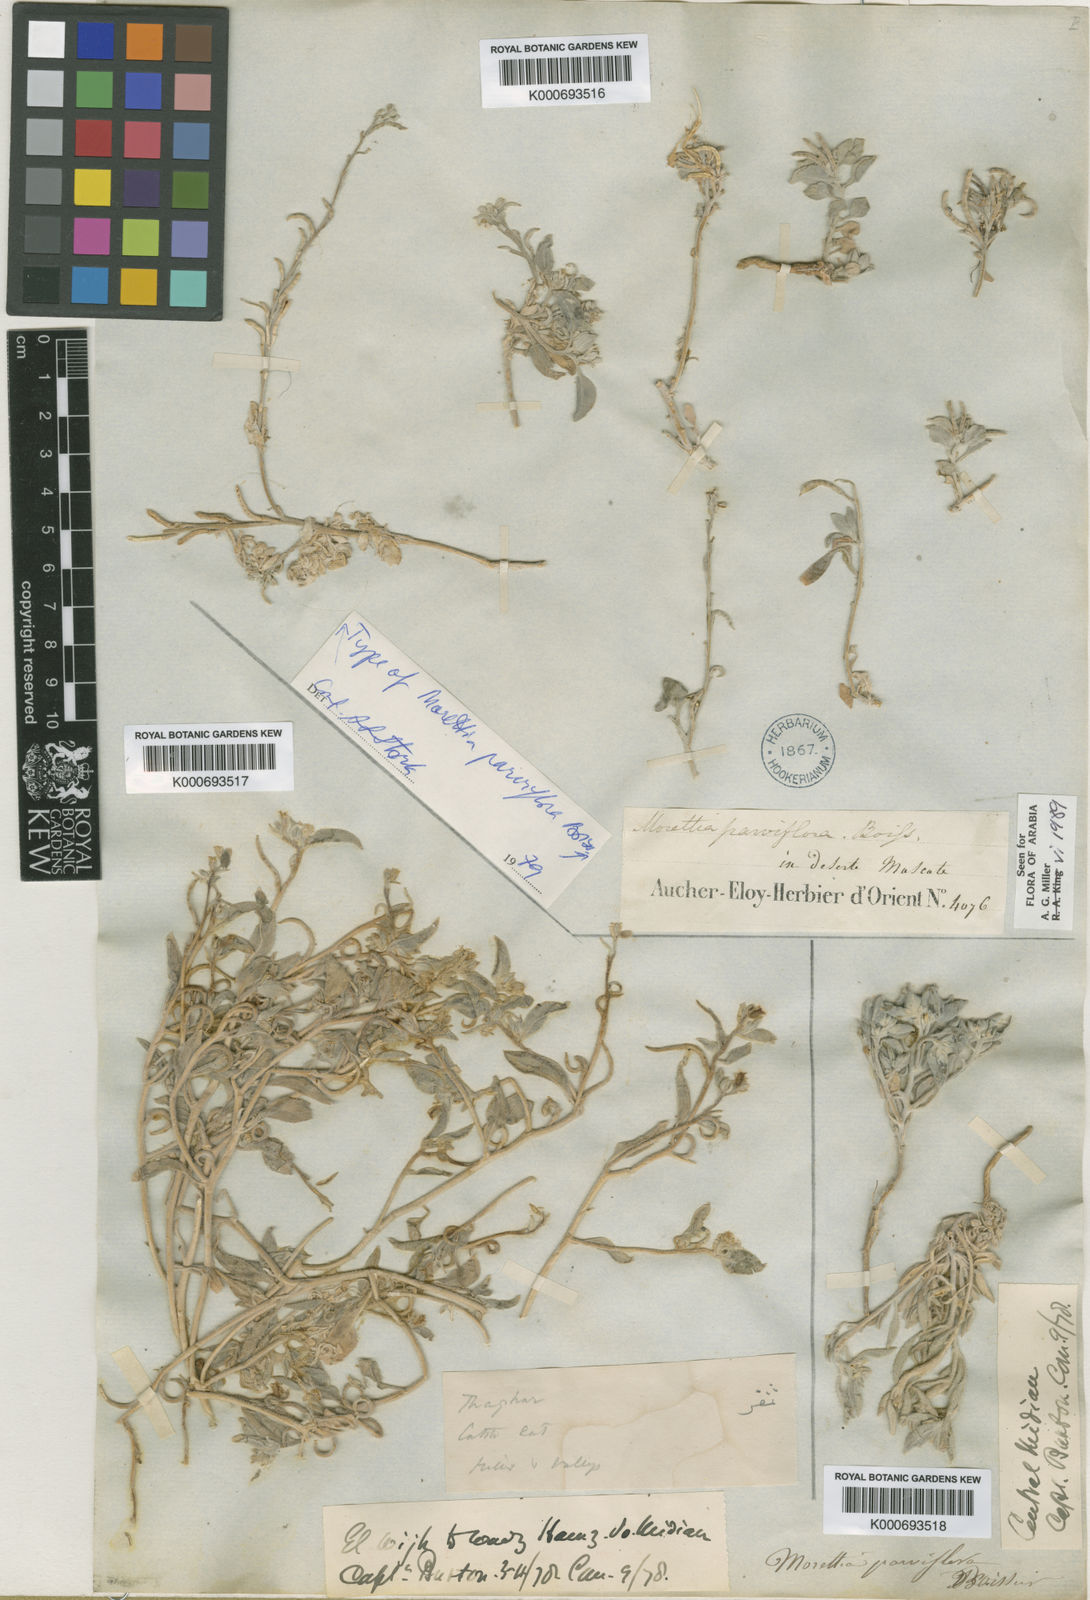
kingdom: Plantae
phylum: Tracheophyta
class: Magnoliopsida
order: Brassicales
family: Brassicaceae
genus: Morettia
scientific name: Morettia parviflora
